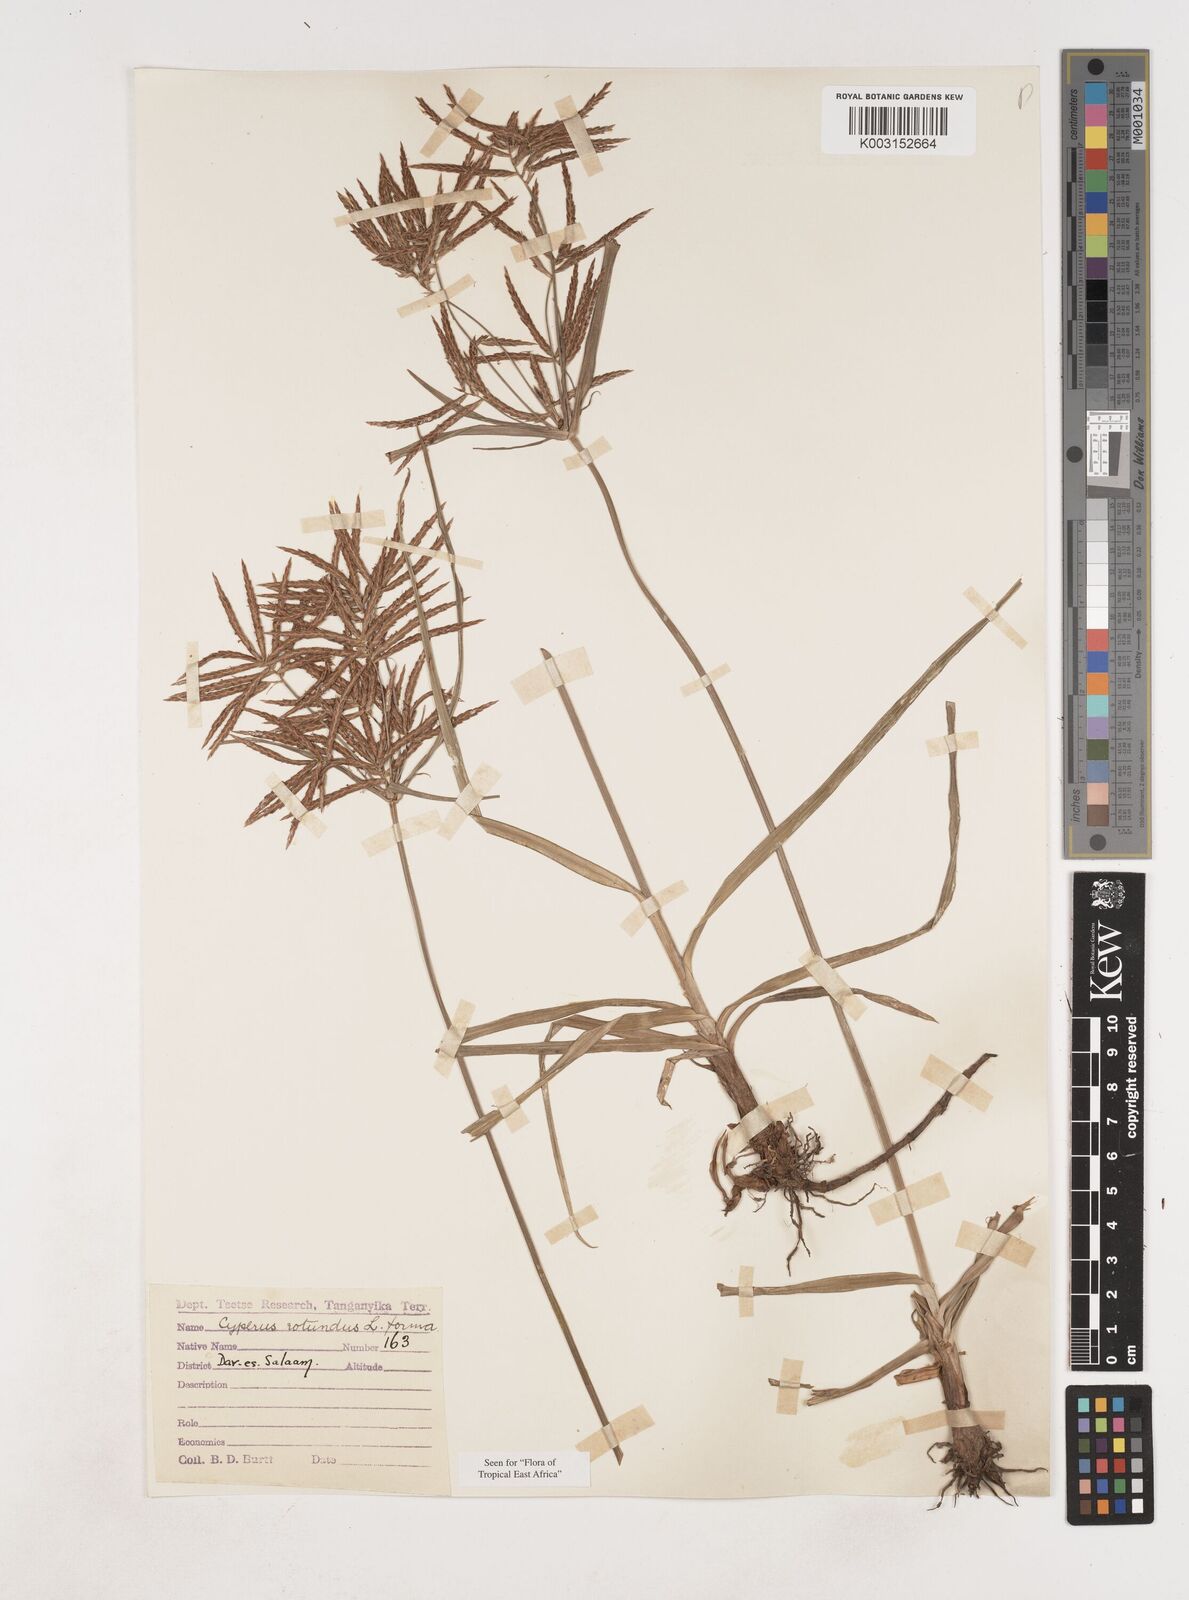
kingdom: Plantae
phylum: Tracheophyta
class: Liliopsida
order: Poales
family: Cyperaceae
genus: Cyperus
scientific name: Cyperus rotundus
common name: Nutgrass
